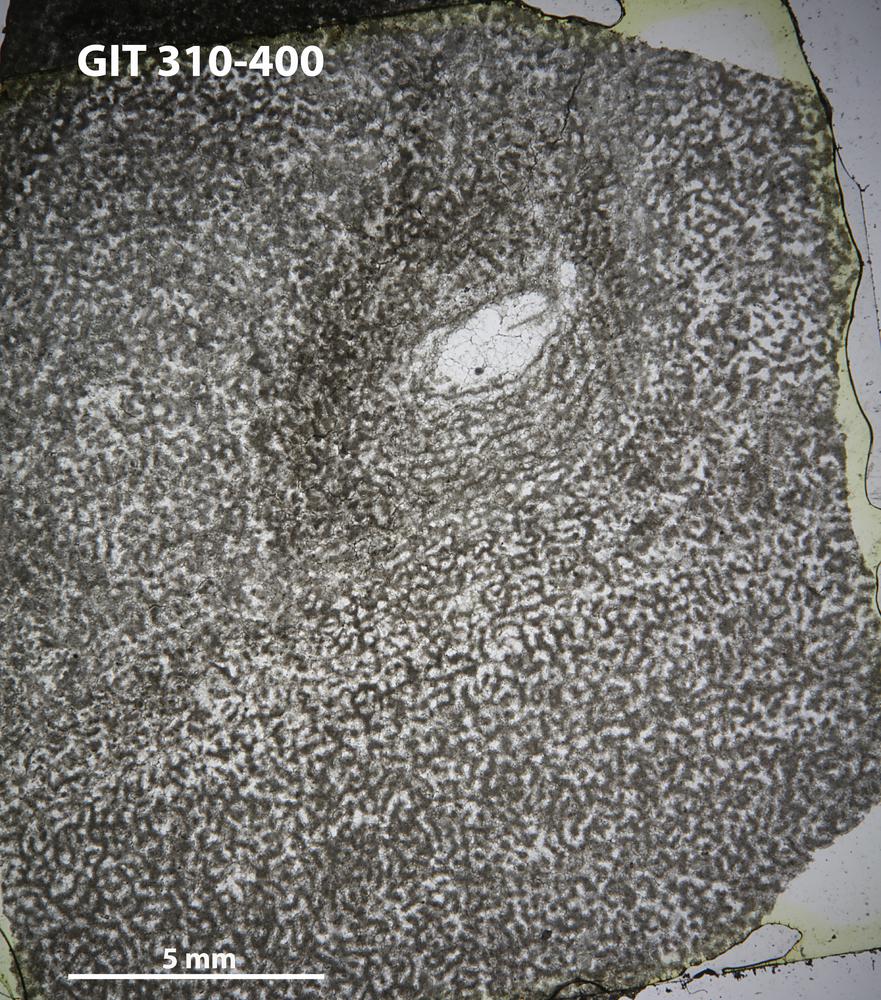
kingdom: Animalia
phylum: Porifera
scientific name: Porifera
